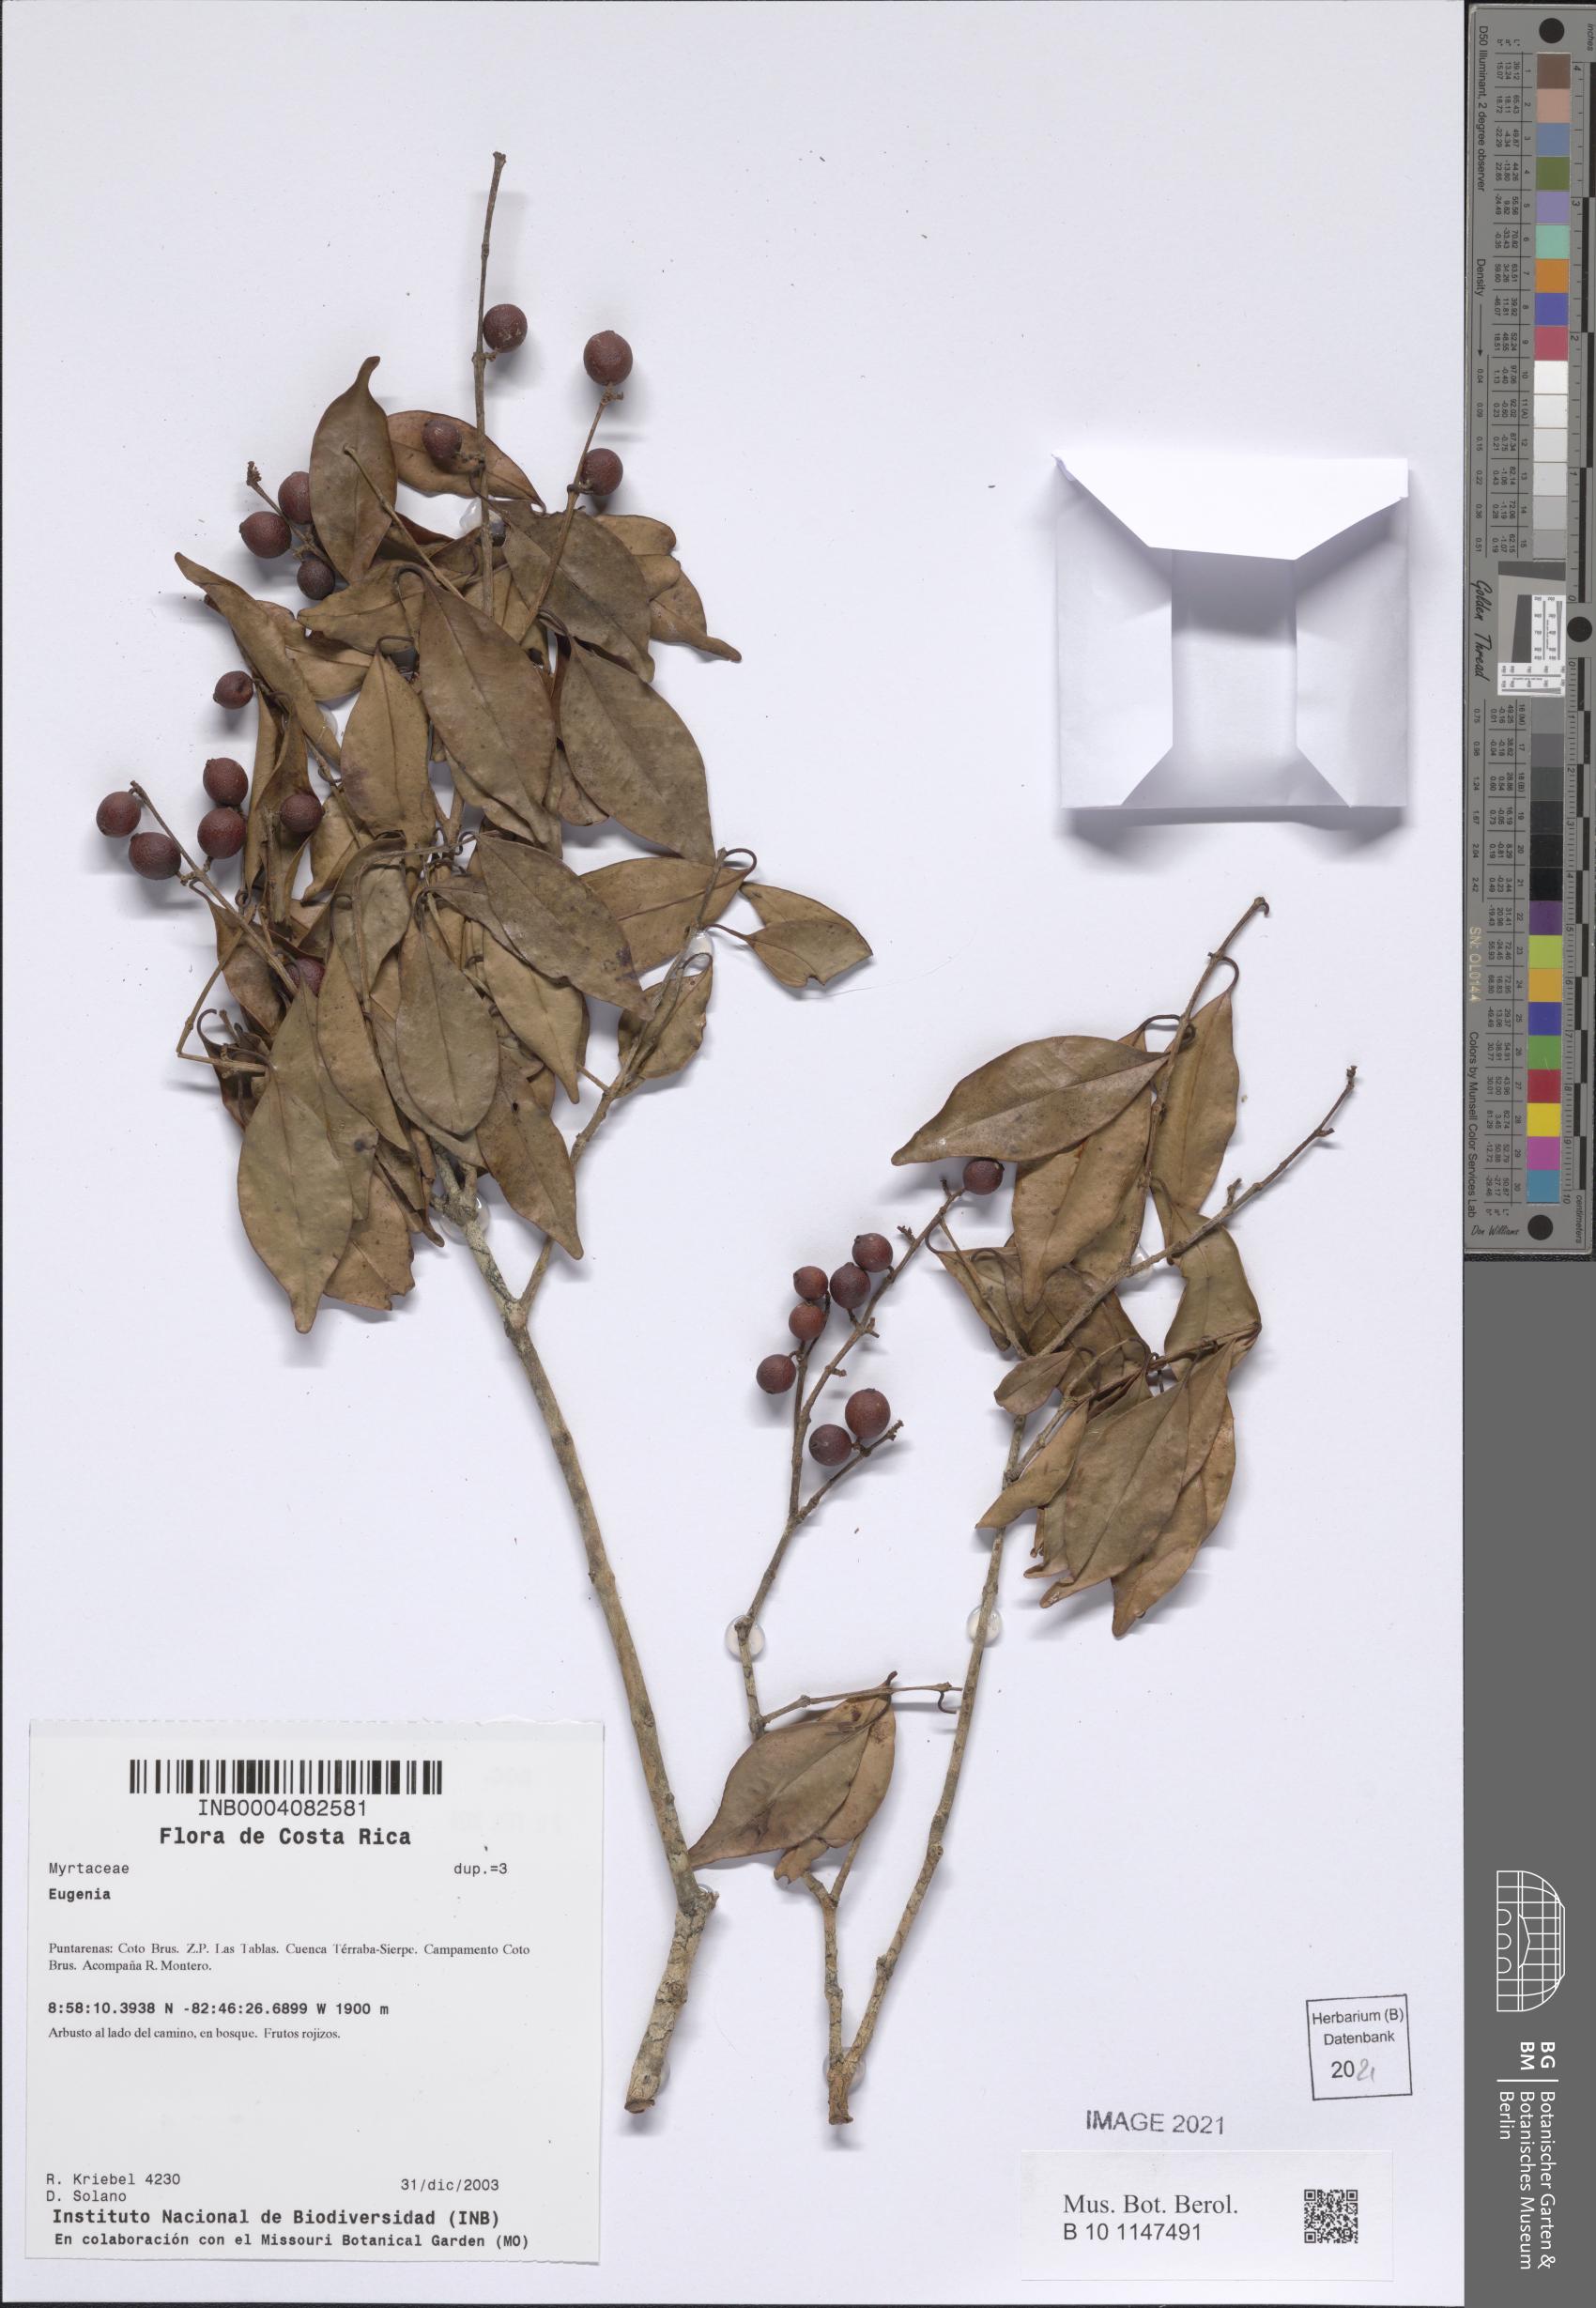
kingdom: Plantae
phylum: Tracheophyta
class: Magnoliopsida
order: Myrtales
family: Myrtaceae
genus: Eugenia
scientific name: Eugenia
